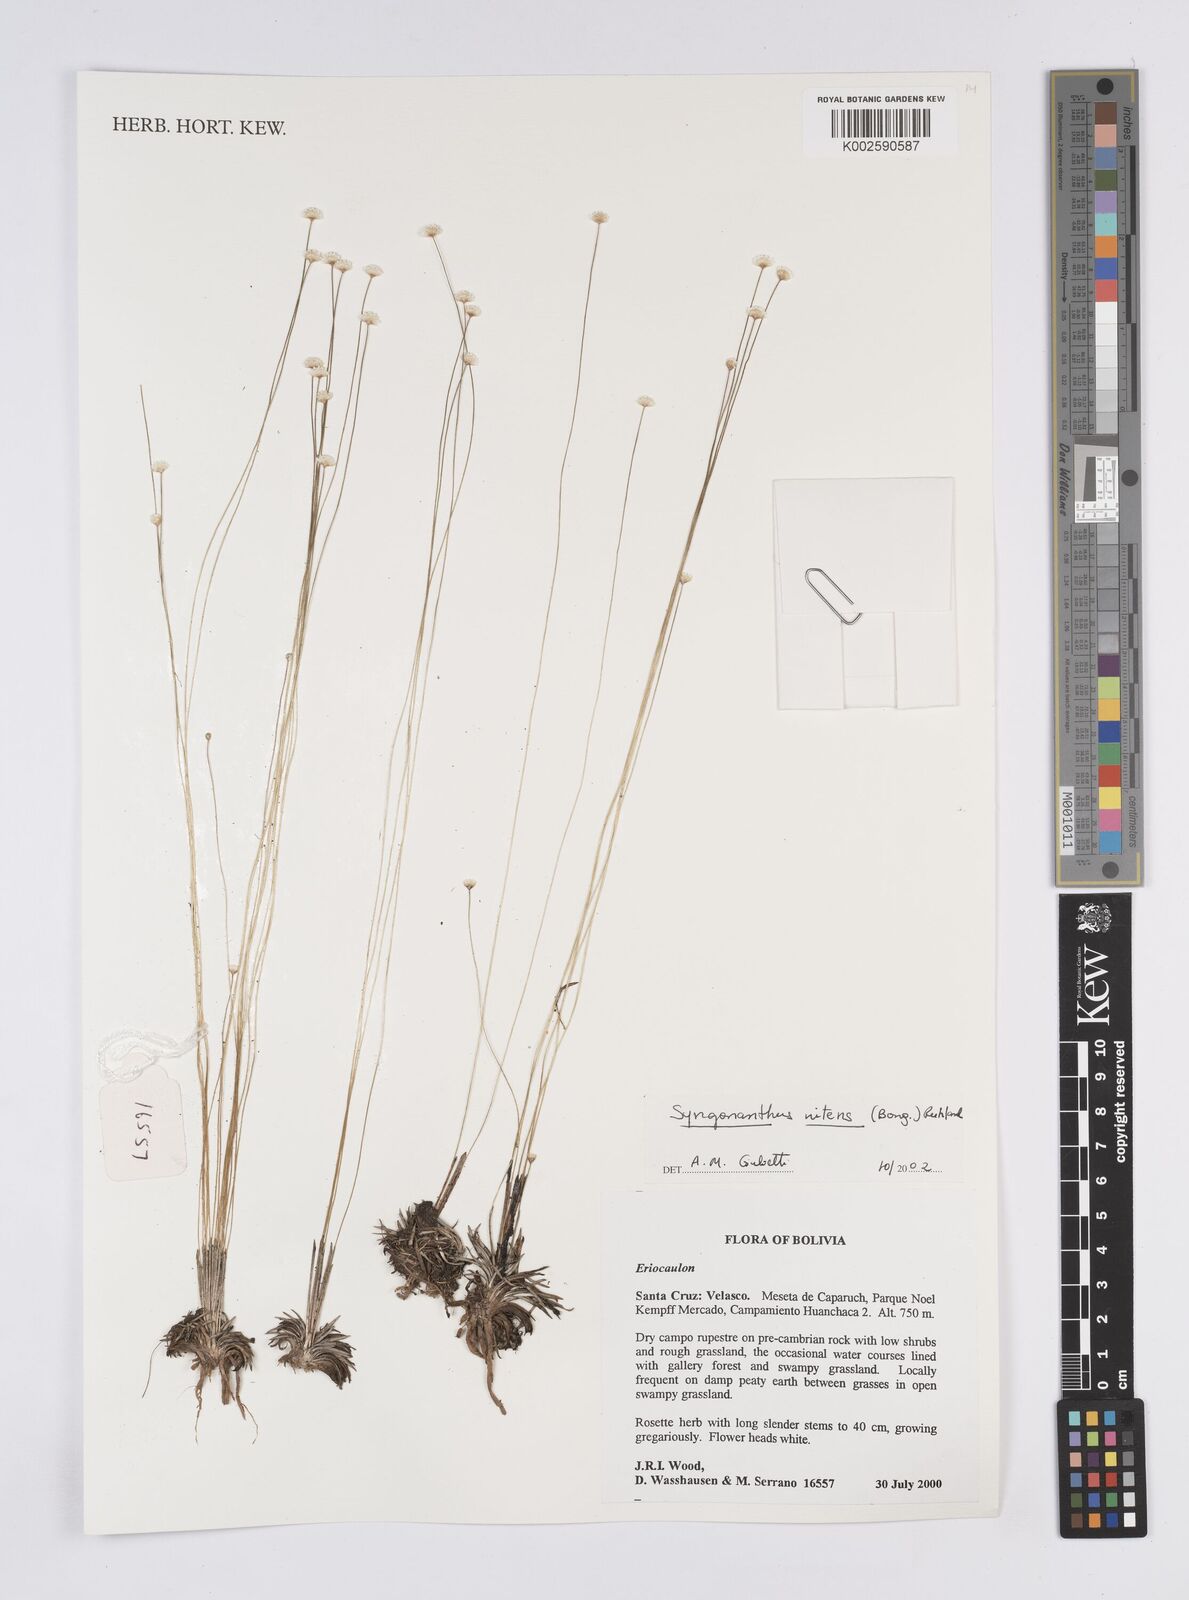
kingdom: Plantae
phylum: Tracheophyta
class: Liliopsida
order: Poales
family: Eriocaulaceae
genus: Syngonanthus
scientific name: Syngonanthus nitens
